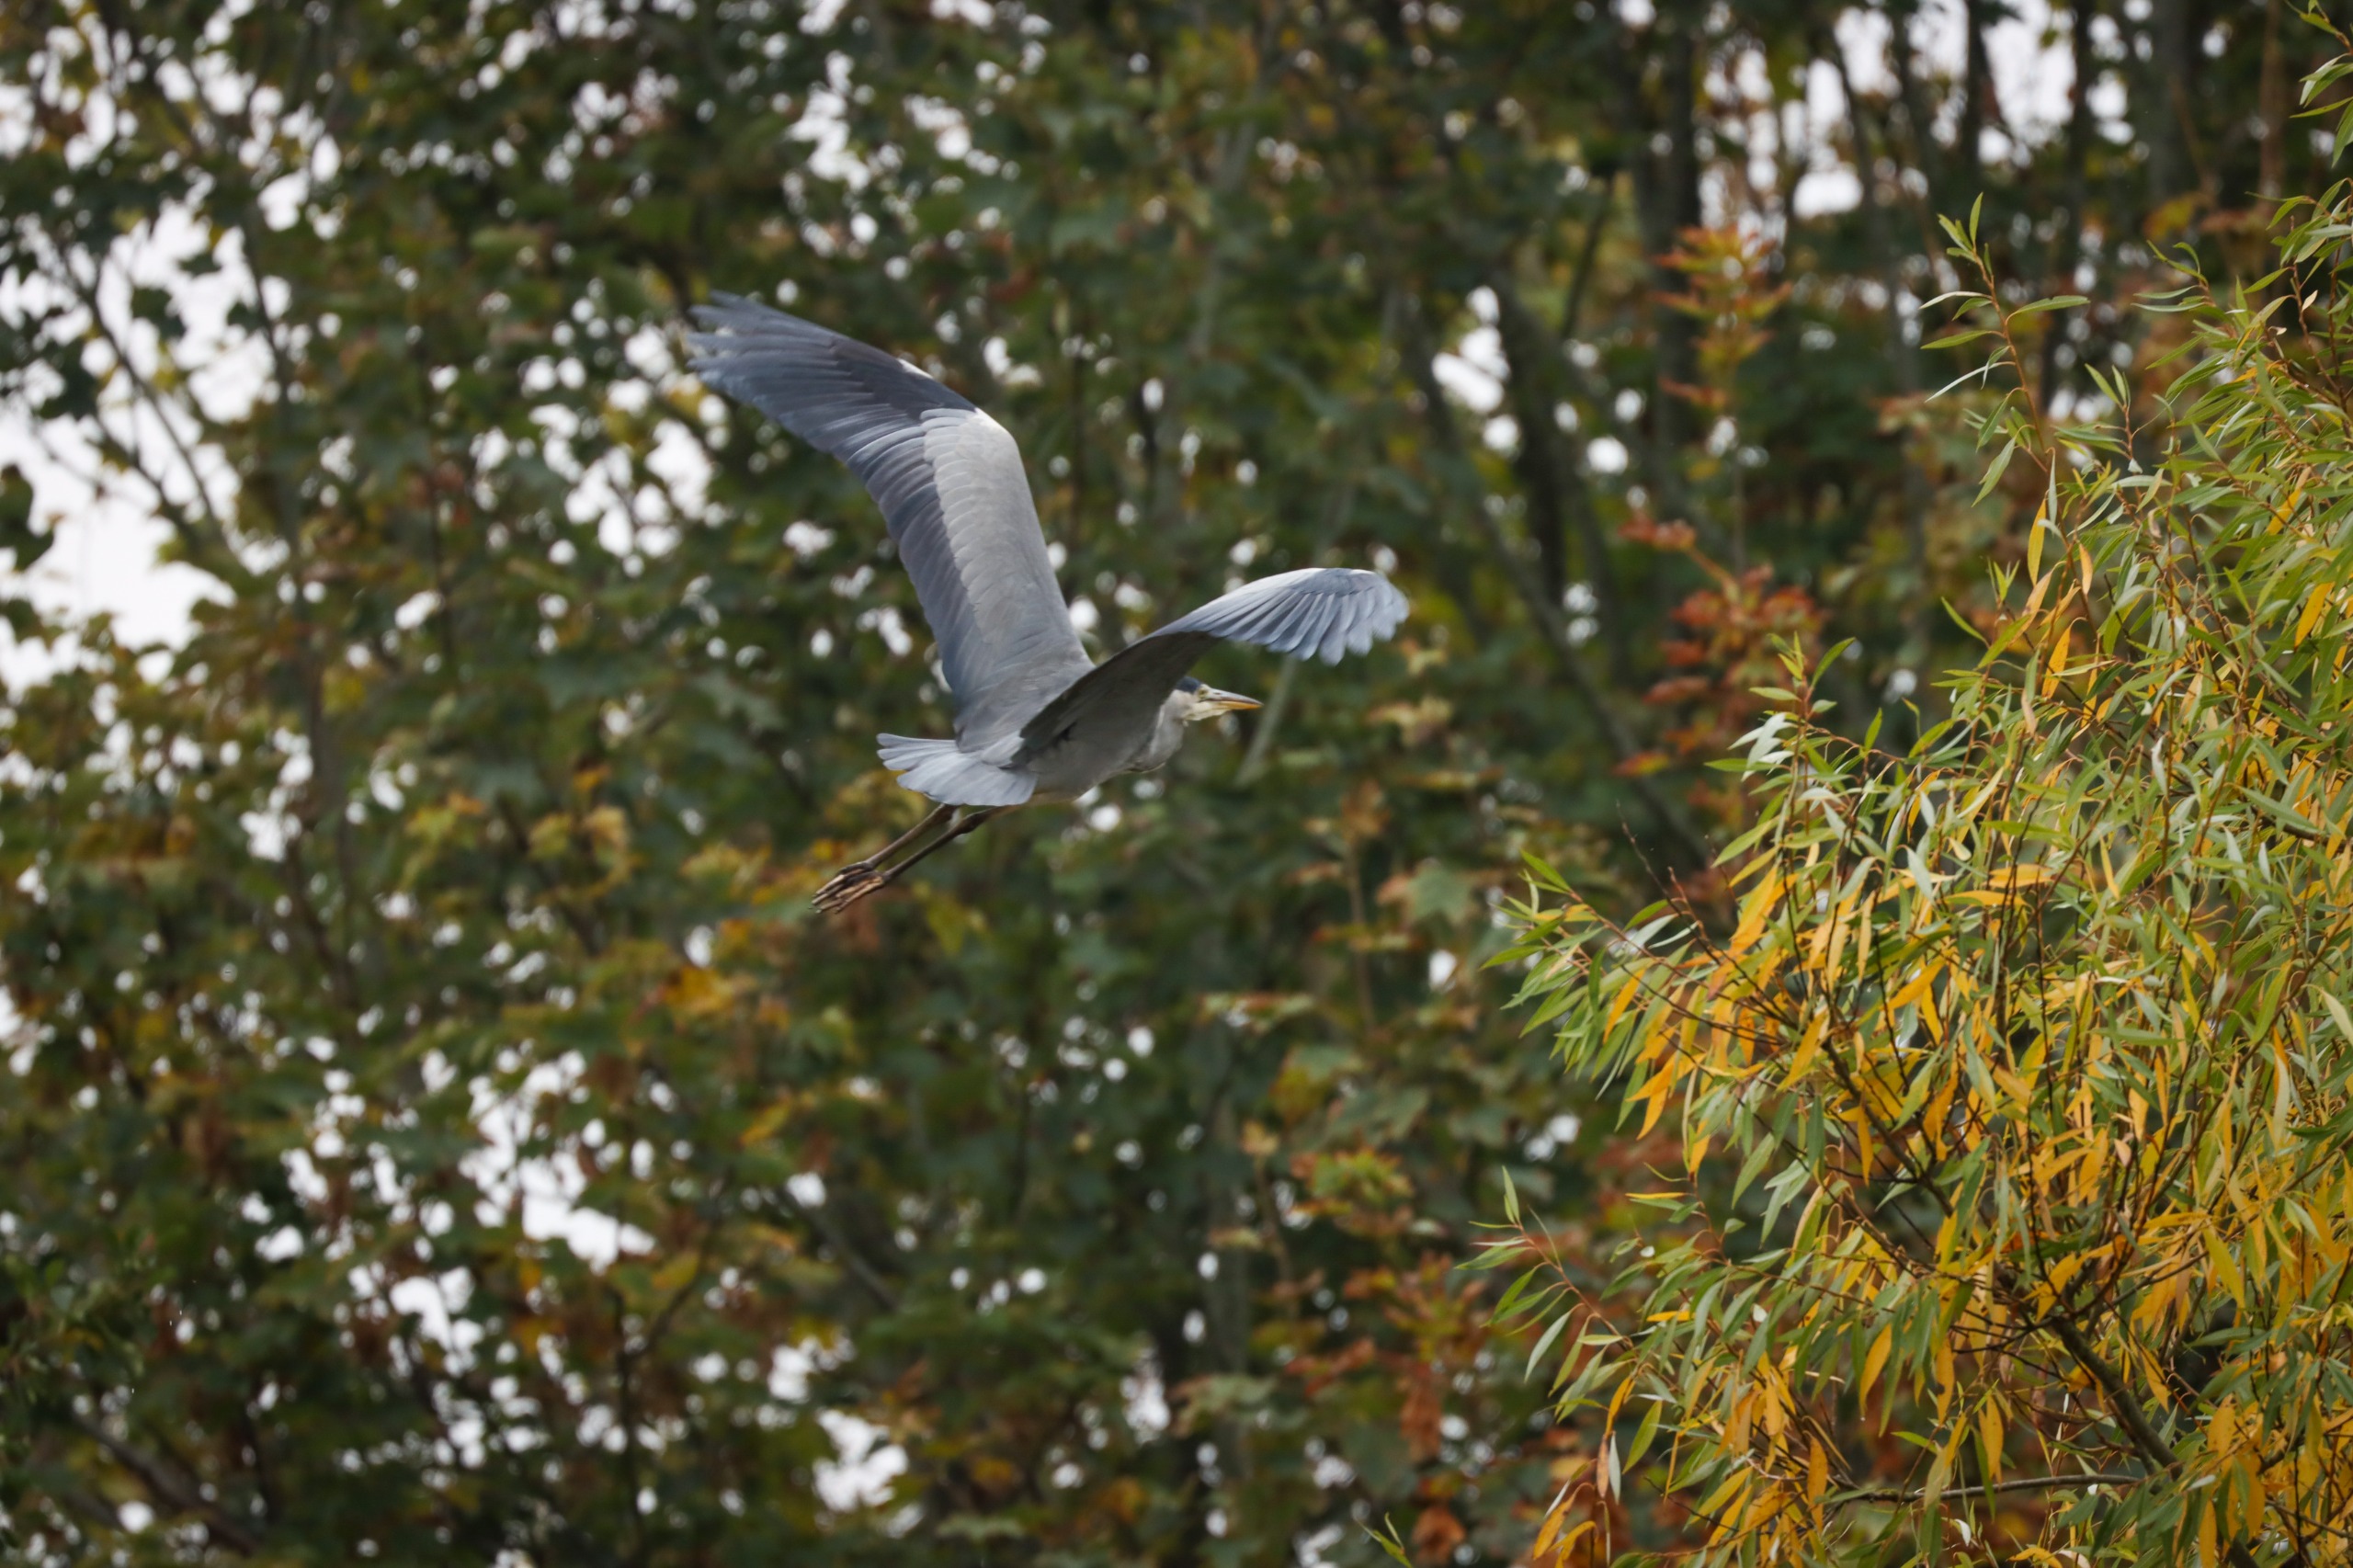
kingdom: Animalia
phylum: Chordata
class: Aves
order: Pelecaniformes
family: Ardeidae
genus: Ardea
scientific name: Ardea cinerea
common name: Fiskehejre
